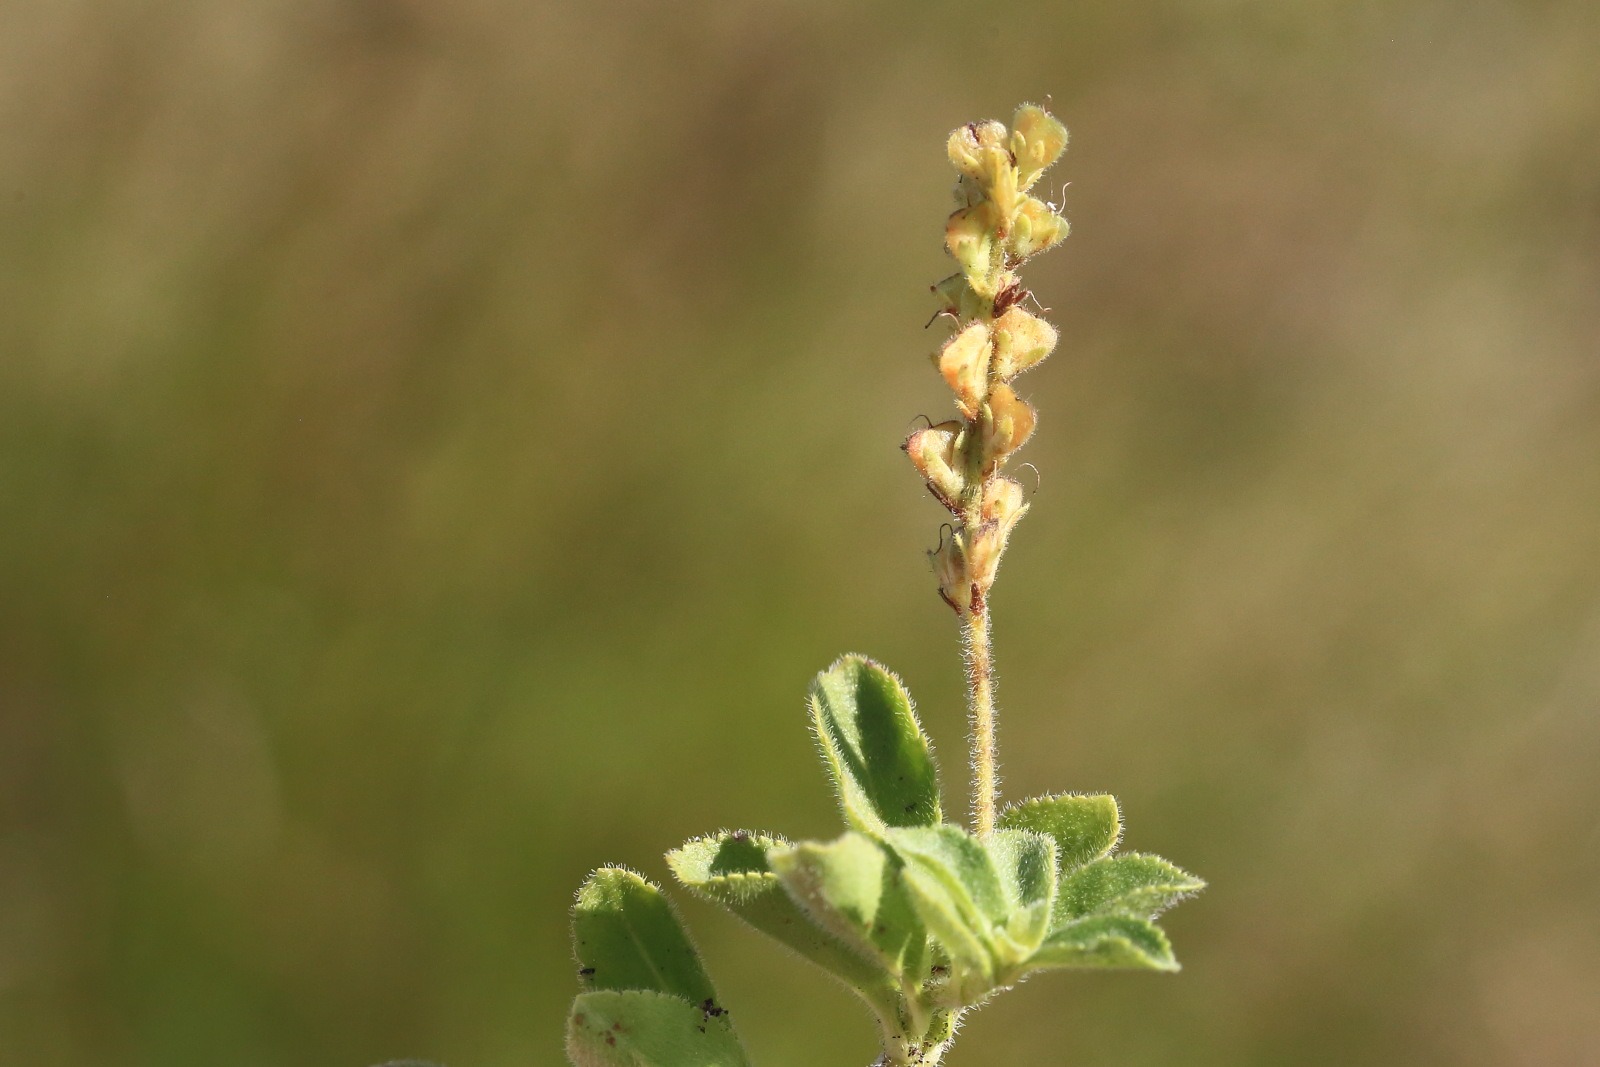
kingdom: Plantae
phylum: Tracheophyta
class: Magnoliopsida
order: Lamiales
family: Plantaginaceae
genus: Veronica
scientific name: Veronica officinalis
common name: Læge-ærenpris
